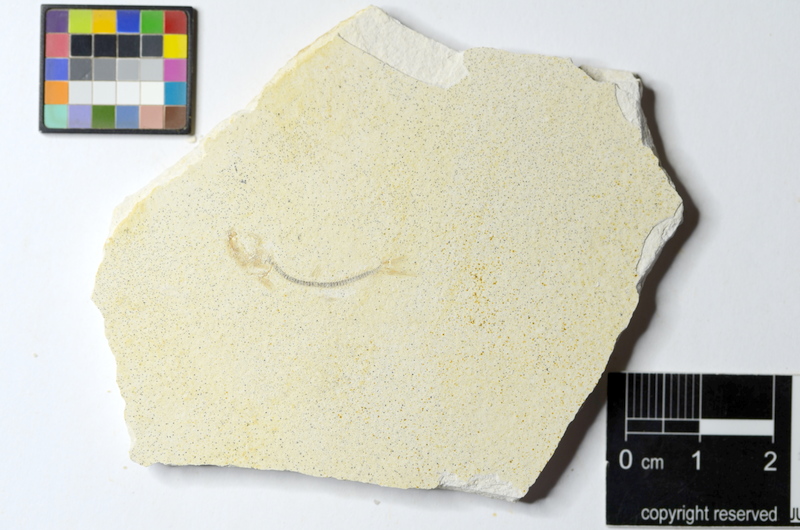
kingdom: Animalia
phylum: Chordata
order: Salmoniformes
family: Orthogonikleithridae
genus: Orthogonikleithrus
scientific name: Orthogonikleithrus hoelli
